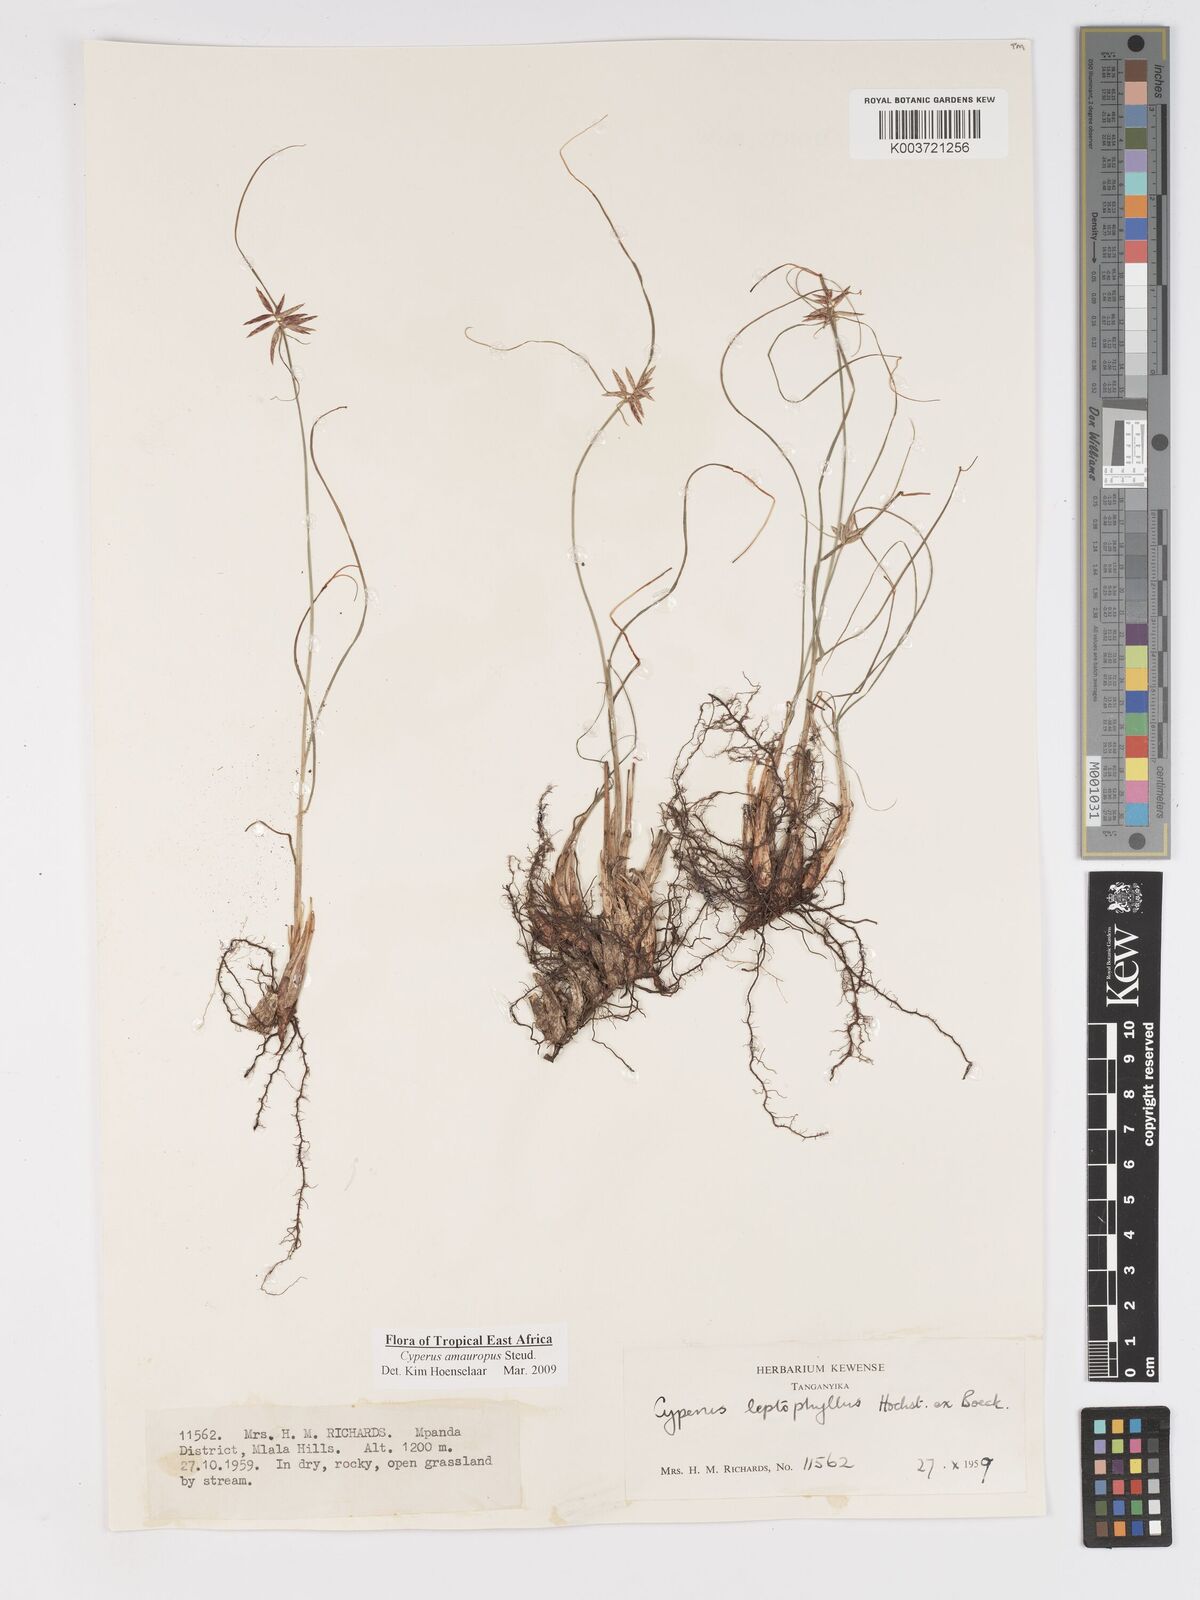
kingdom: Plantae
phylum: Tracheophyta
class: Liliopsida
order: Poales
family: Cyperaceae
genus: Cyperus
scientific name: Cyperus amauropus
